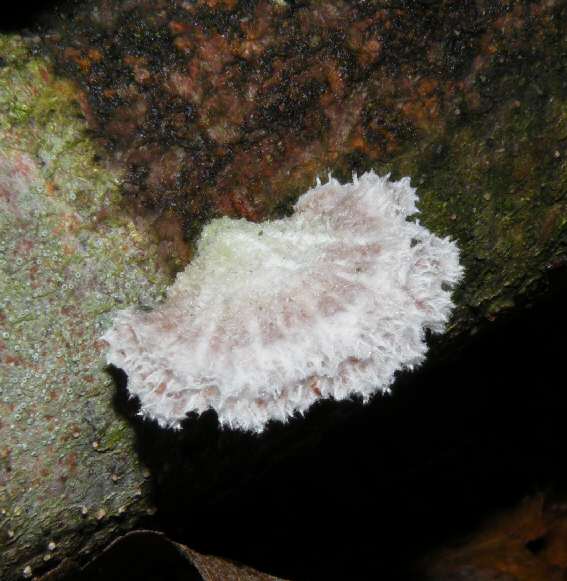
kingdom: Fungi
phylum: Basidiomycota
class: Agaricomycetes
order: Agaricales
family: Schizophyllaceae
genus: Schizophyllum
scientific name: Schizophyllum commune
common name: kløvblad
